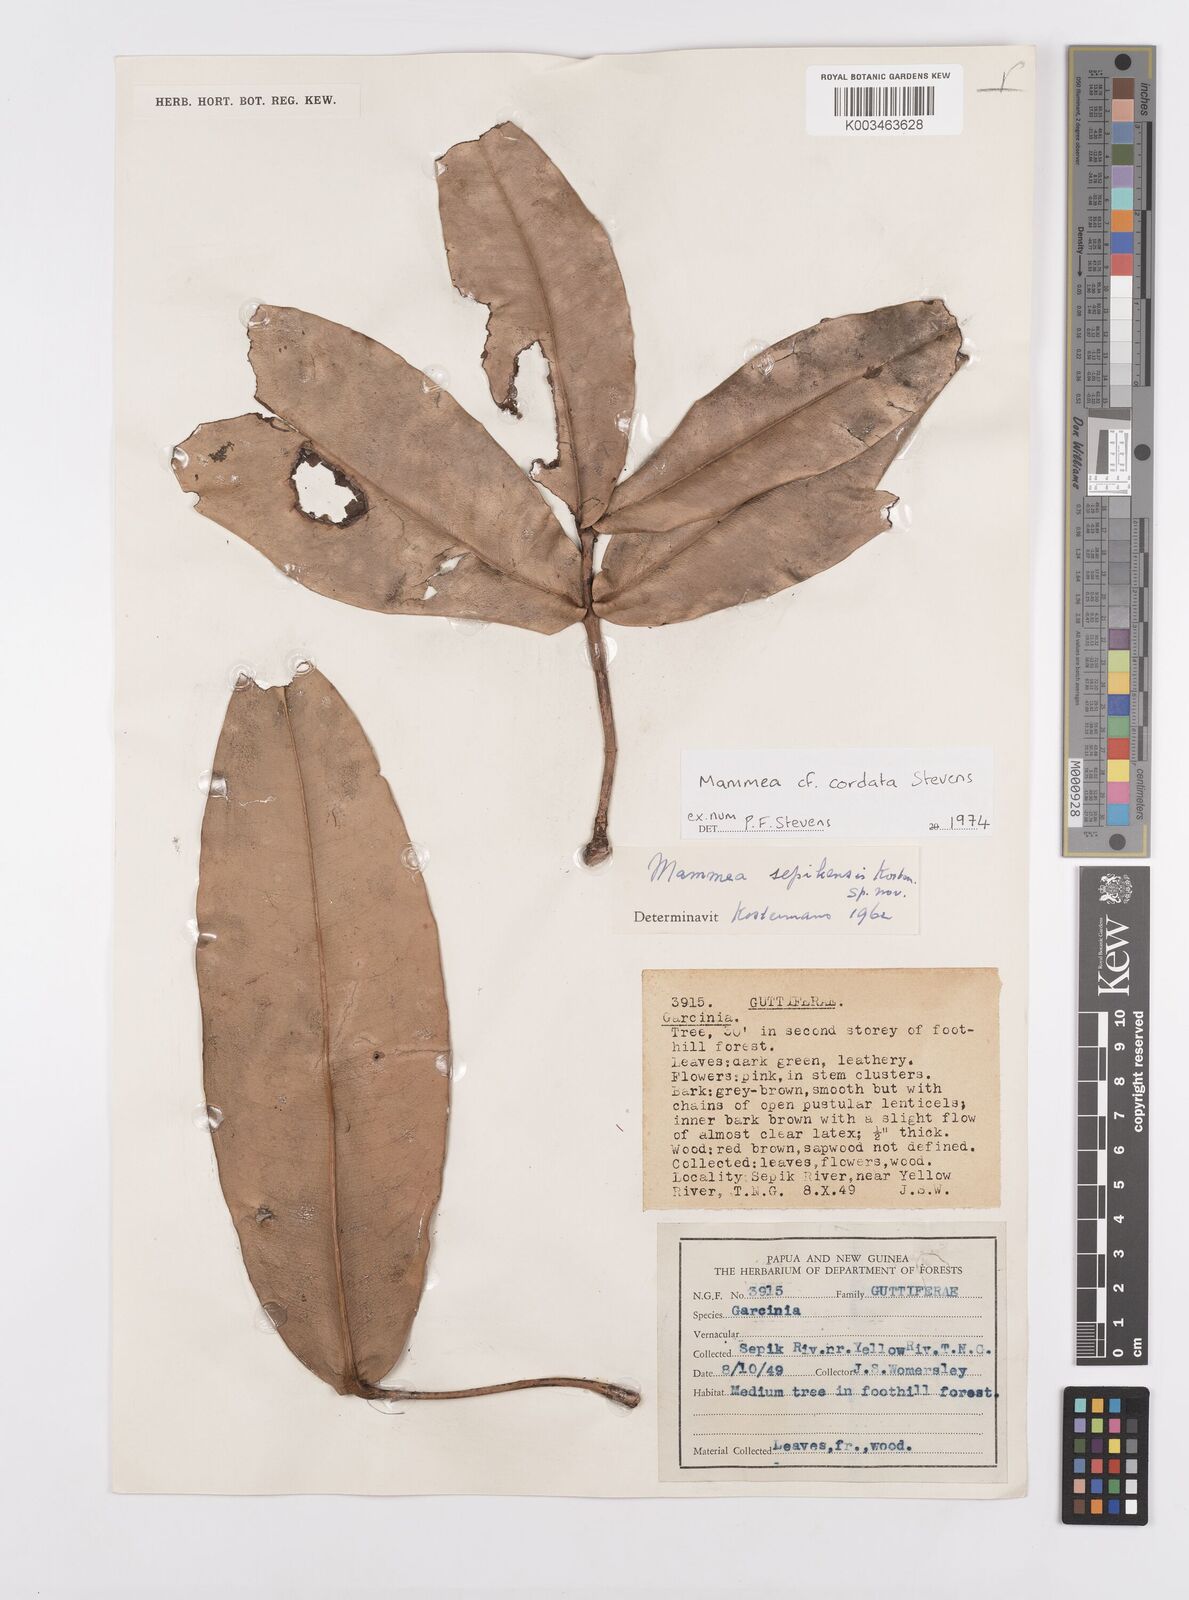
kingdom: Plantae
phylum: Tracheophyta
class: Magnoliopsida
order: Malpighiales
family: Calophyllaceae
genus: Mammea
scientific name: Mammea cordata
